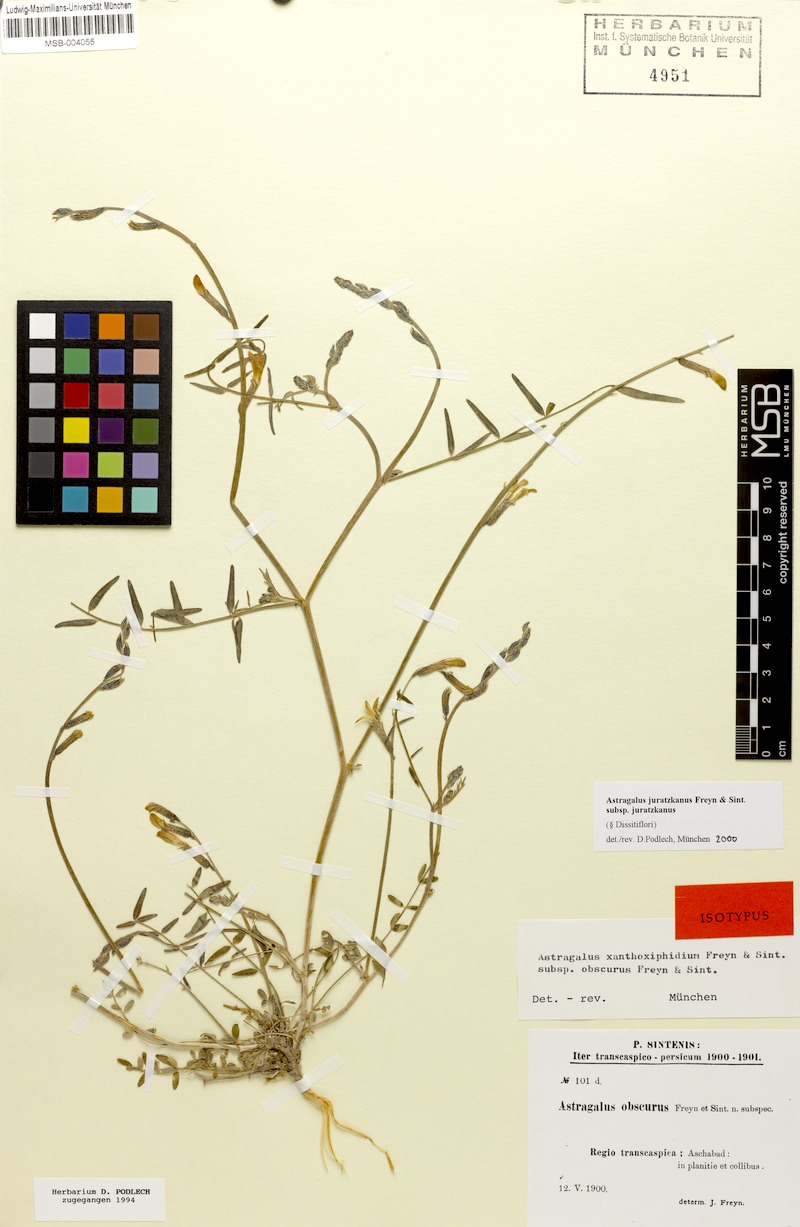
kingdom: Plantae
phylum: Tracheophyta
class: Magnoliopsida
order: Fabales
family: Fabaceae
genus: Astragalus
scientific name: Astragalus juratzkanus
